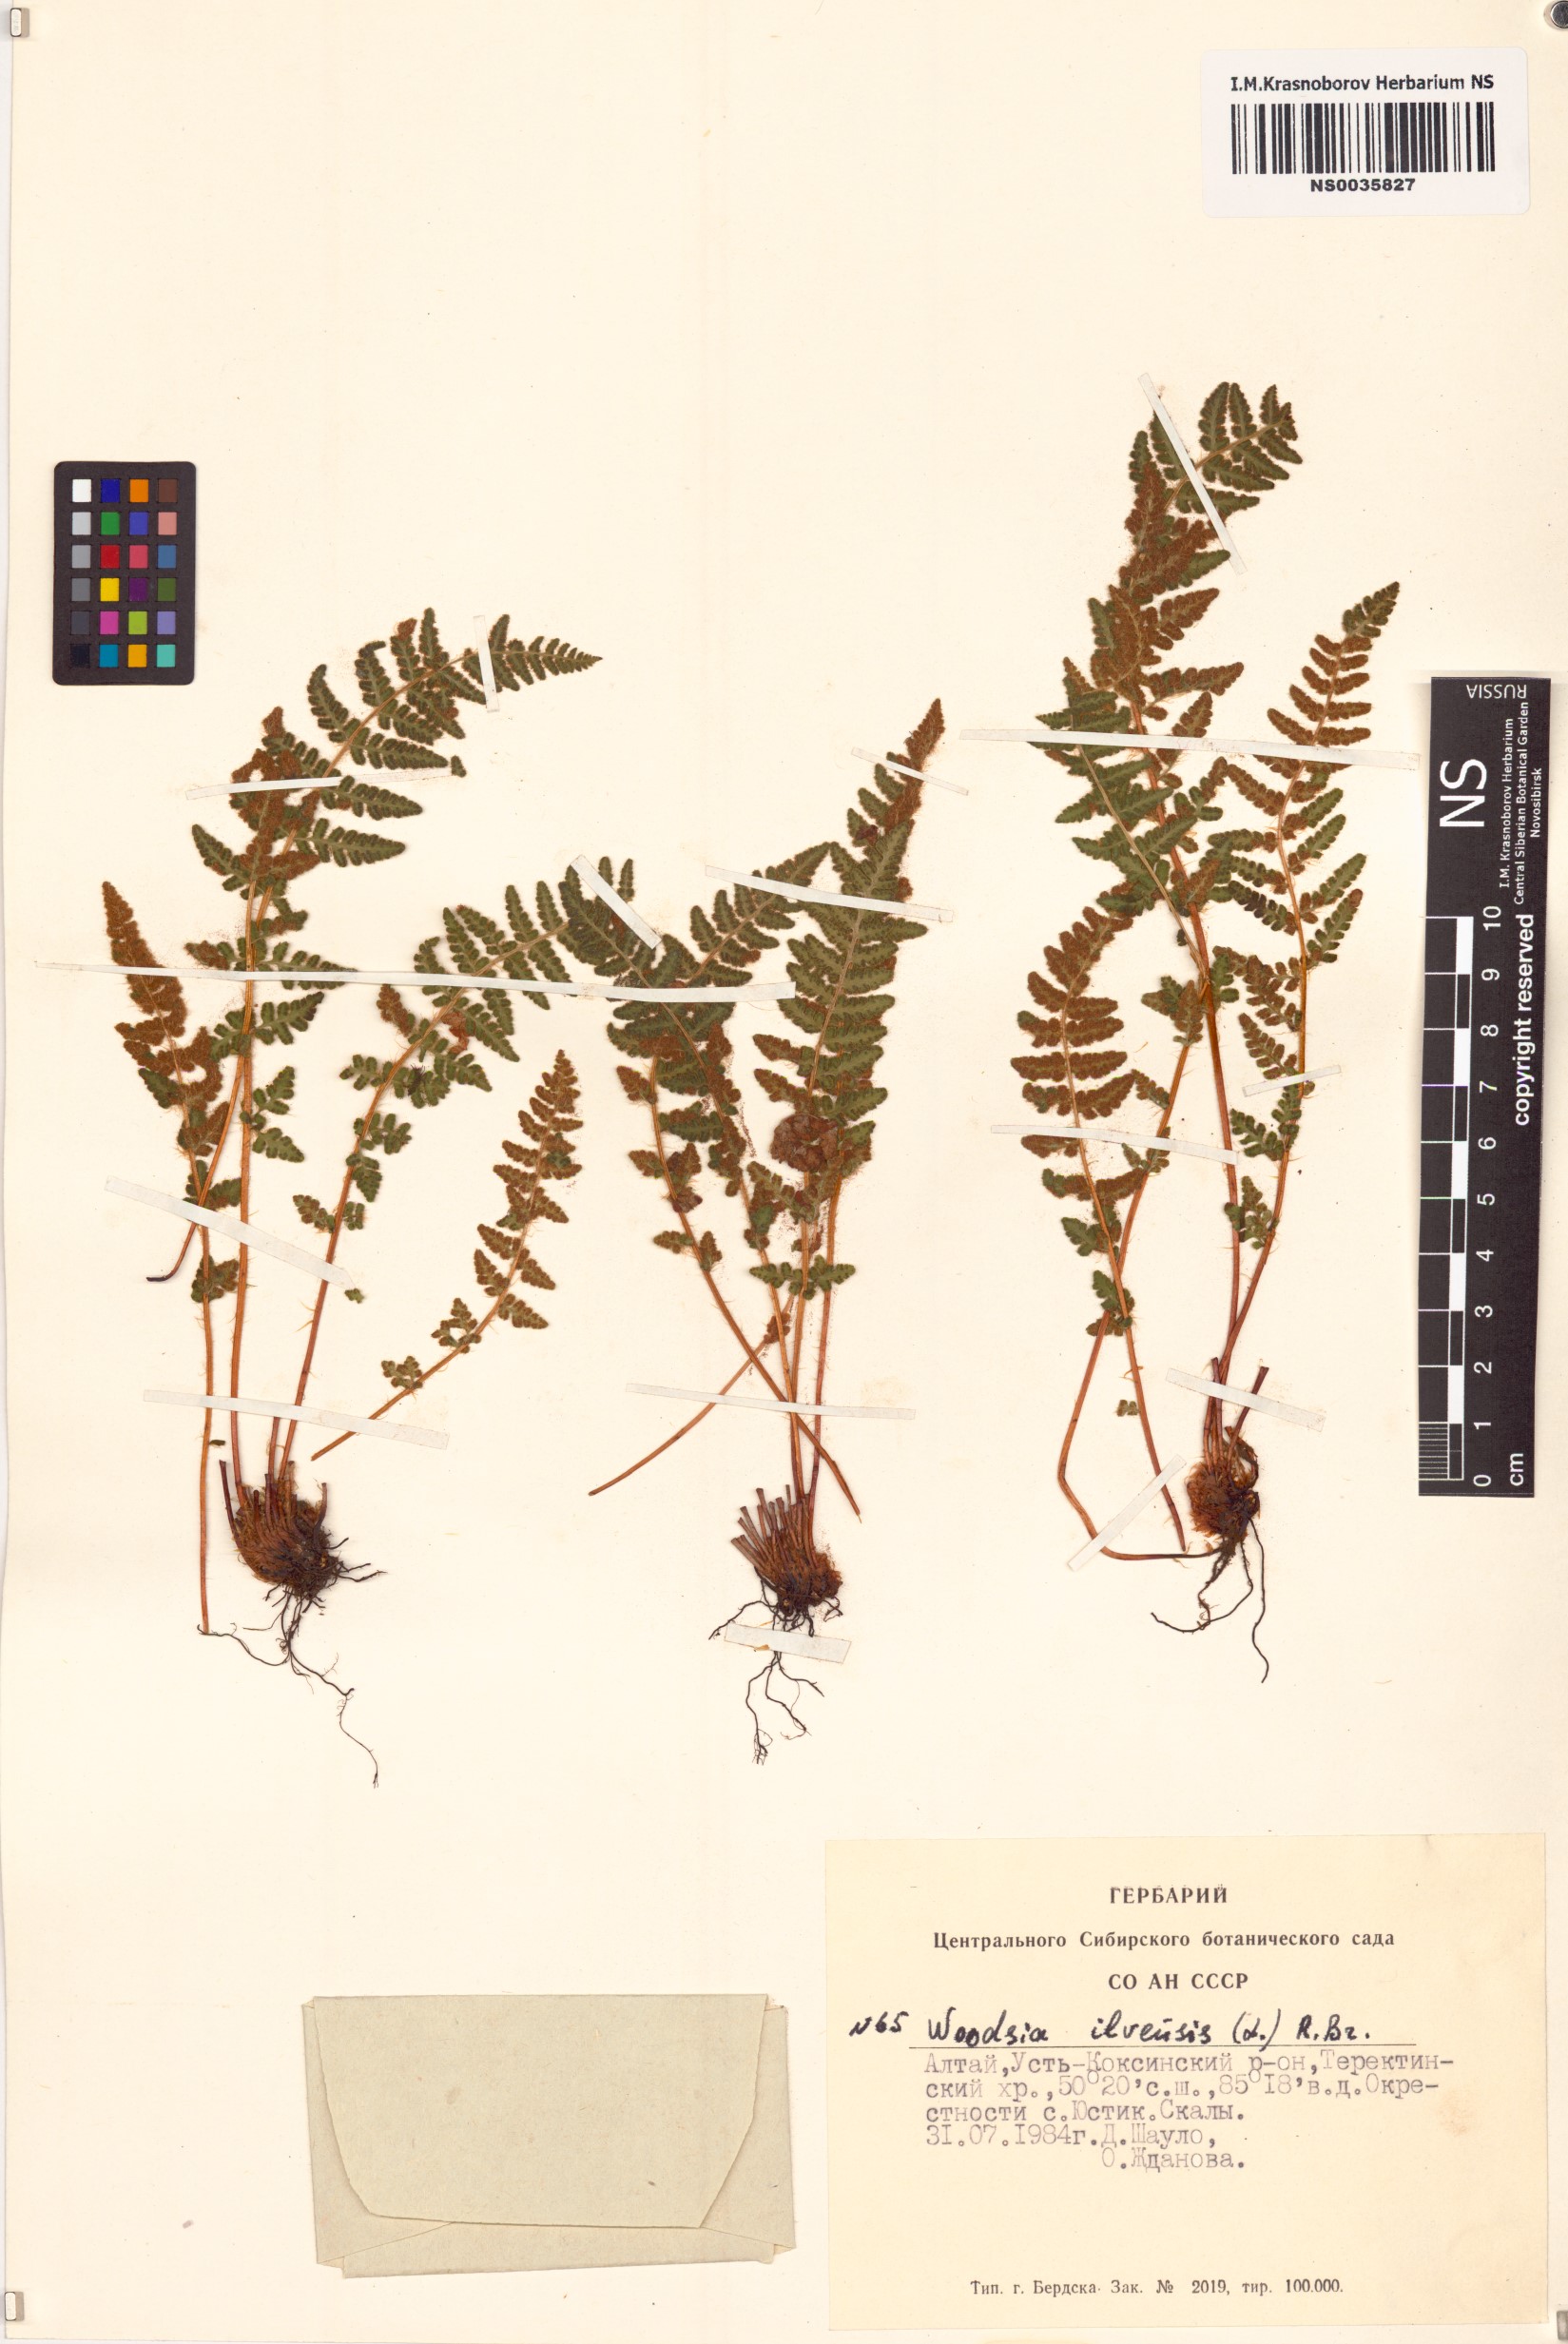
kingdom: Plantae
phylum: Tracheophyta
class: Polypodiopsida
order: Polypodiales
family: Woodsiaceae
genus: Woodsia
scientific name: Woodsia ilvensis
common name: Fragrant woodsia
